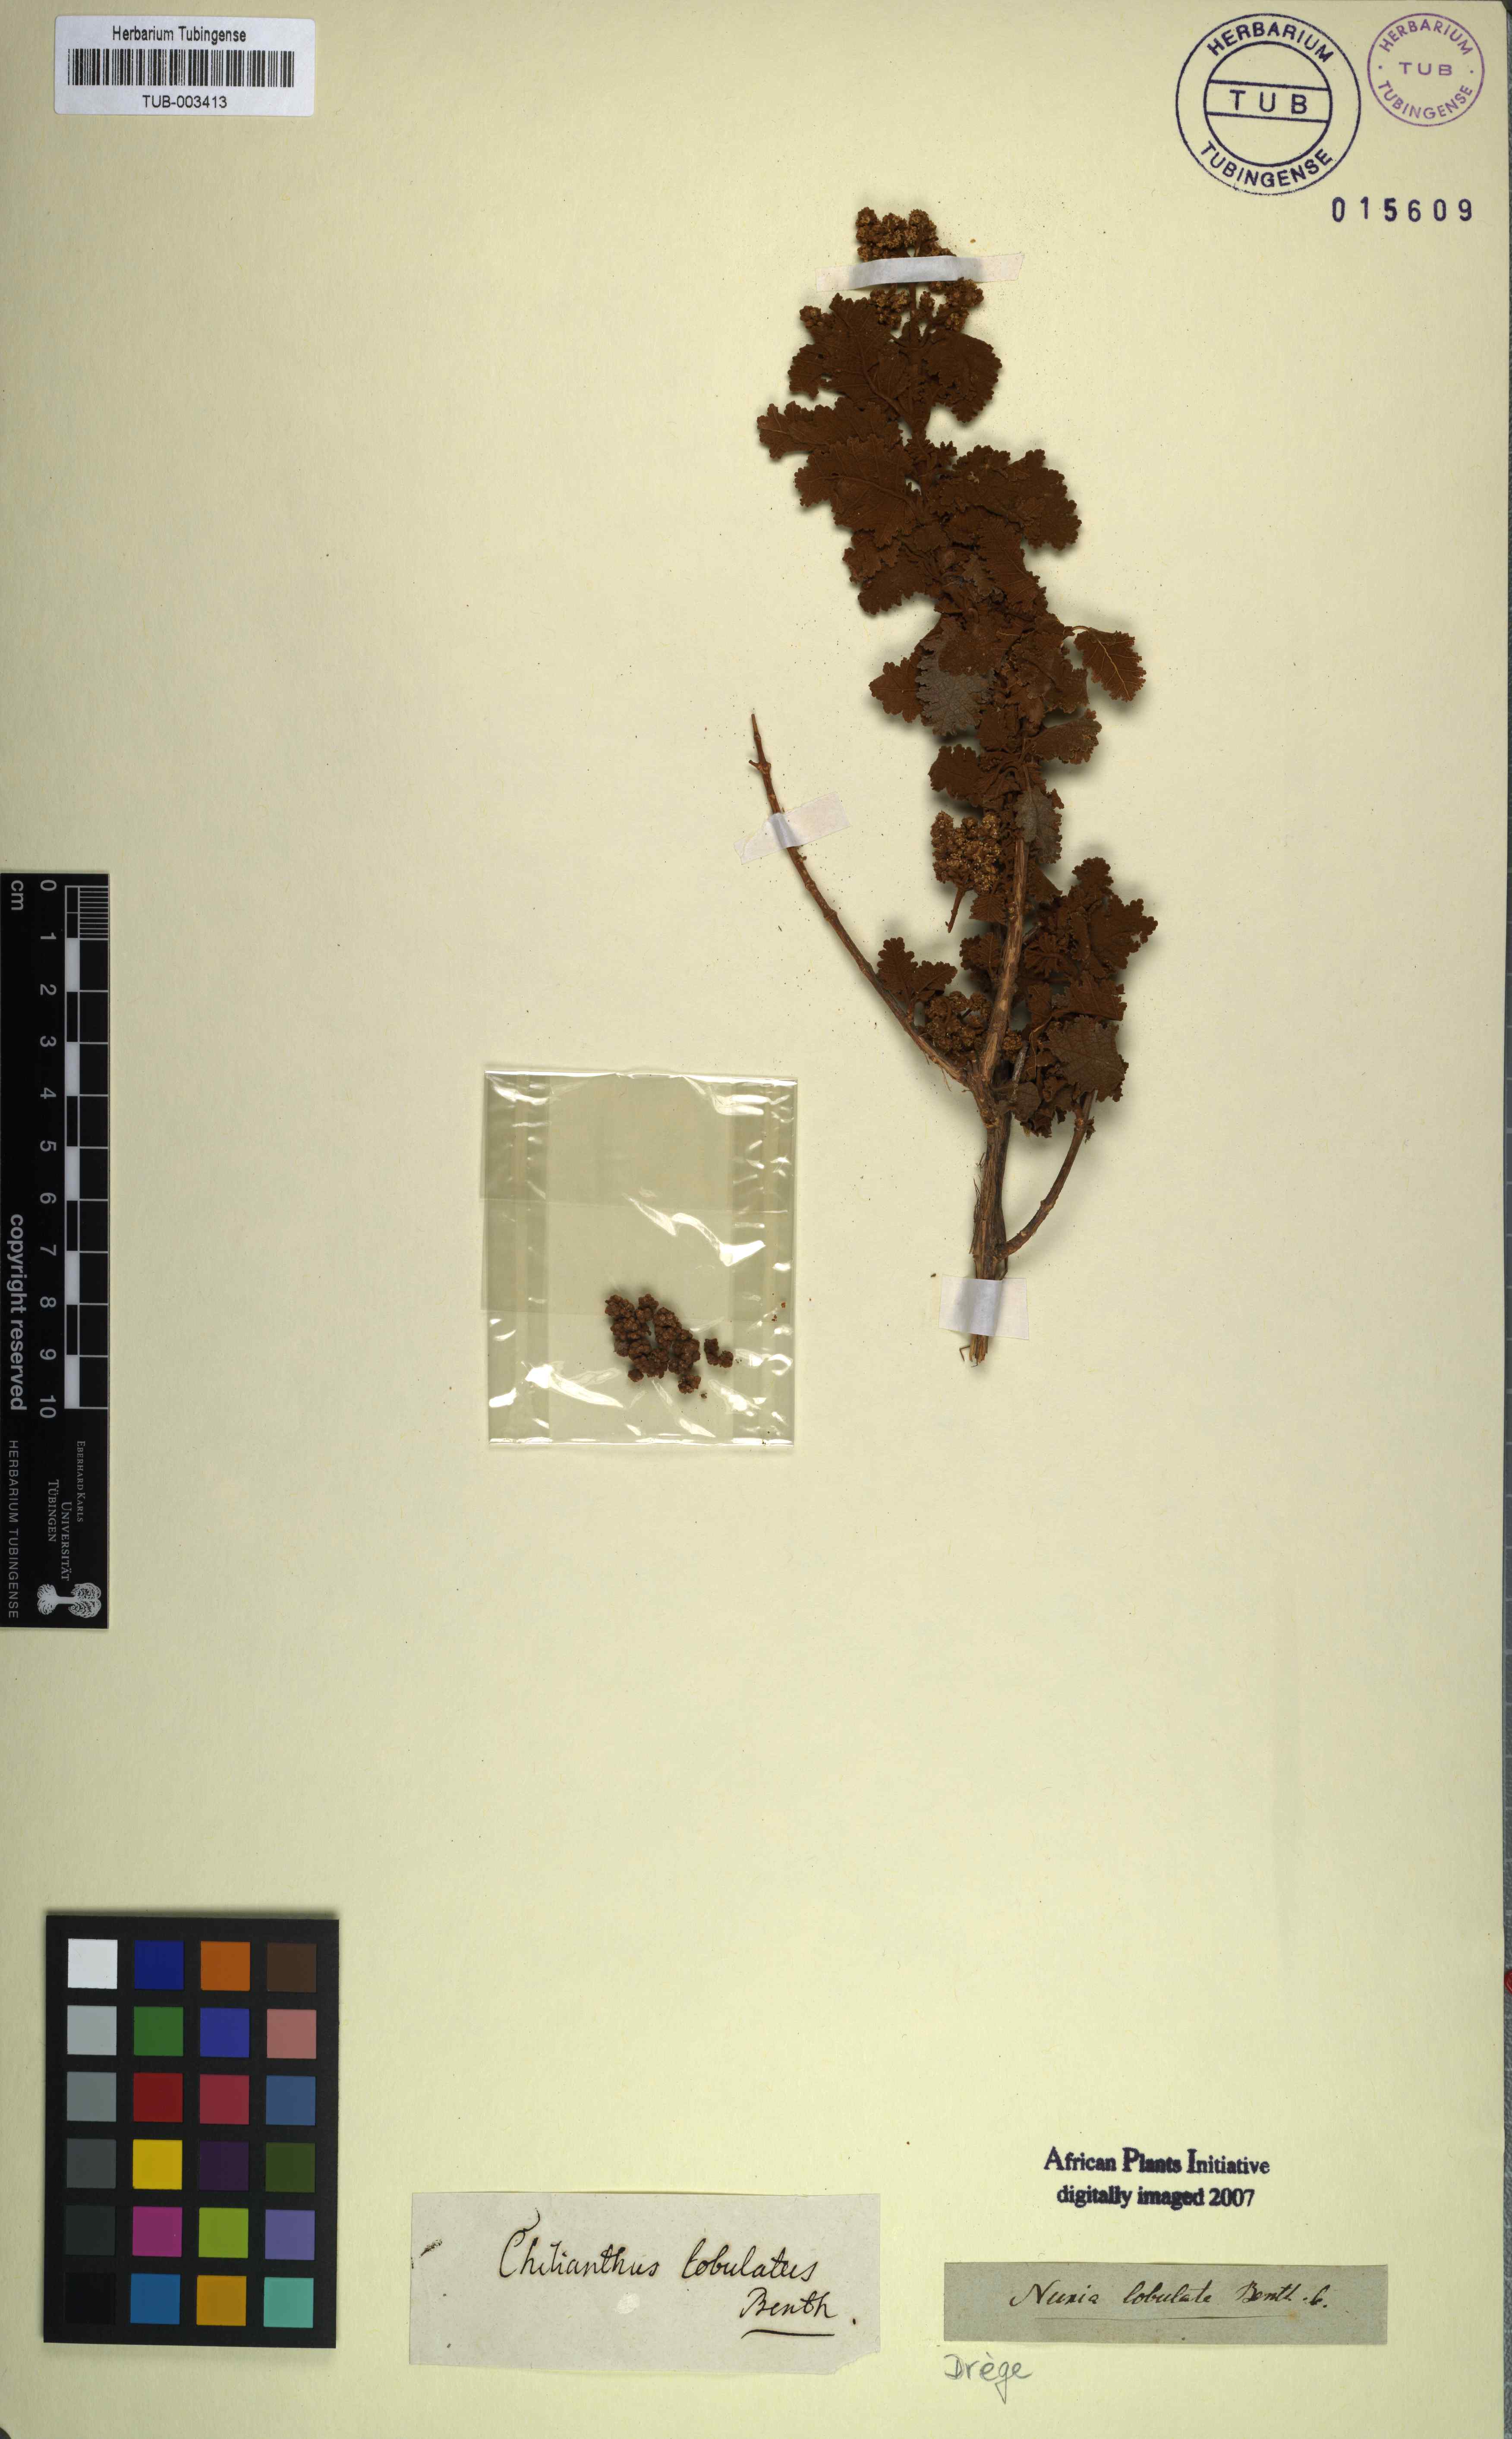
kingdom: Plantae
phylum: Tracheophyta
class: Magnoliopsida
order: Lamiales
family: Scrophulariaceae
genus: Buddleja
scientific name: Buddleja glomerata
